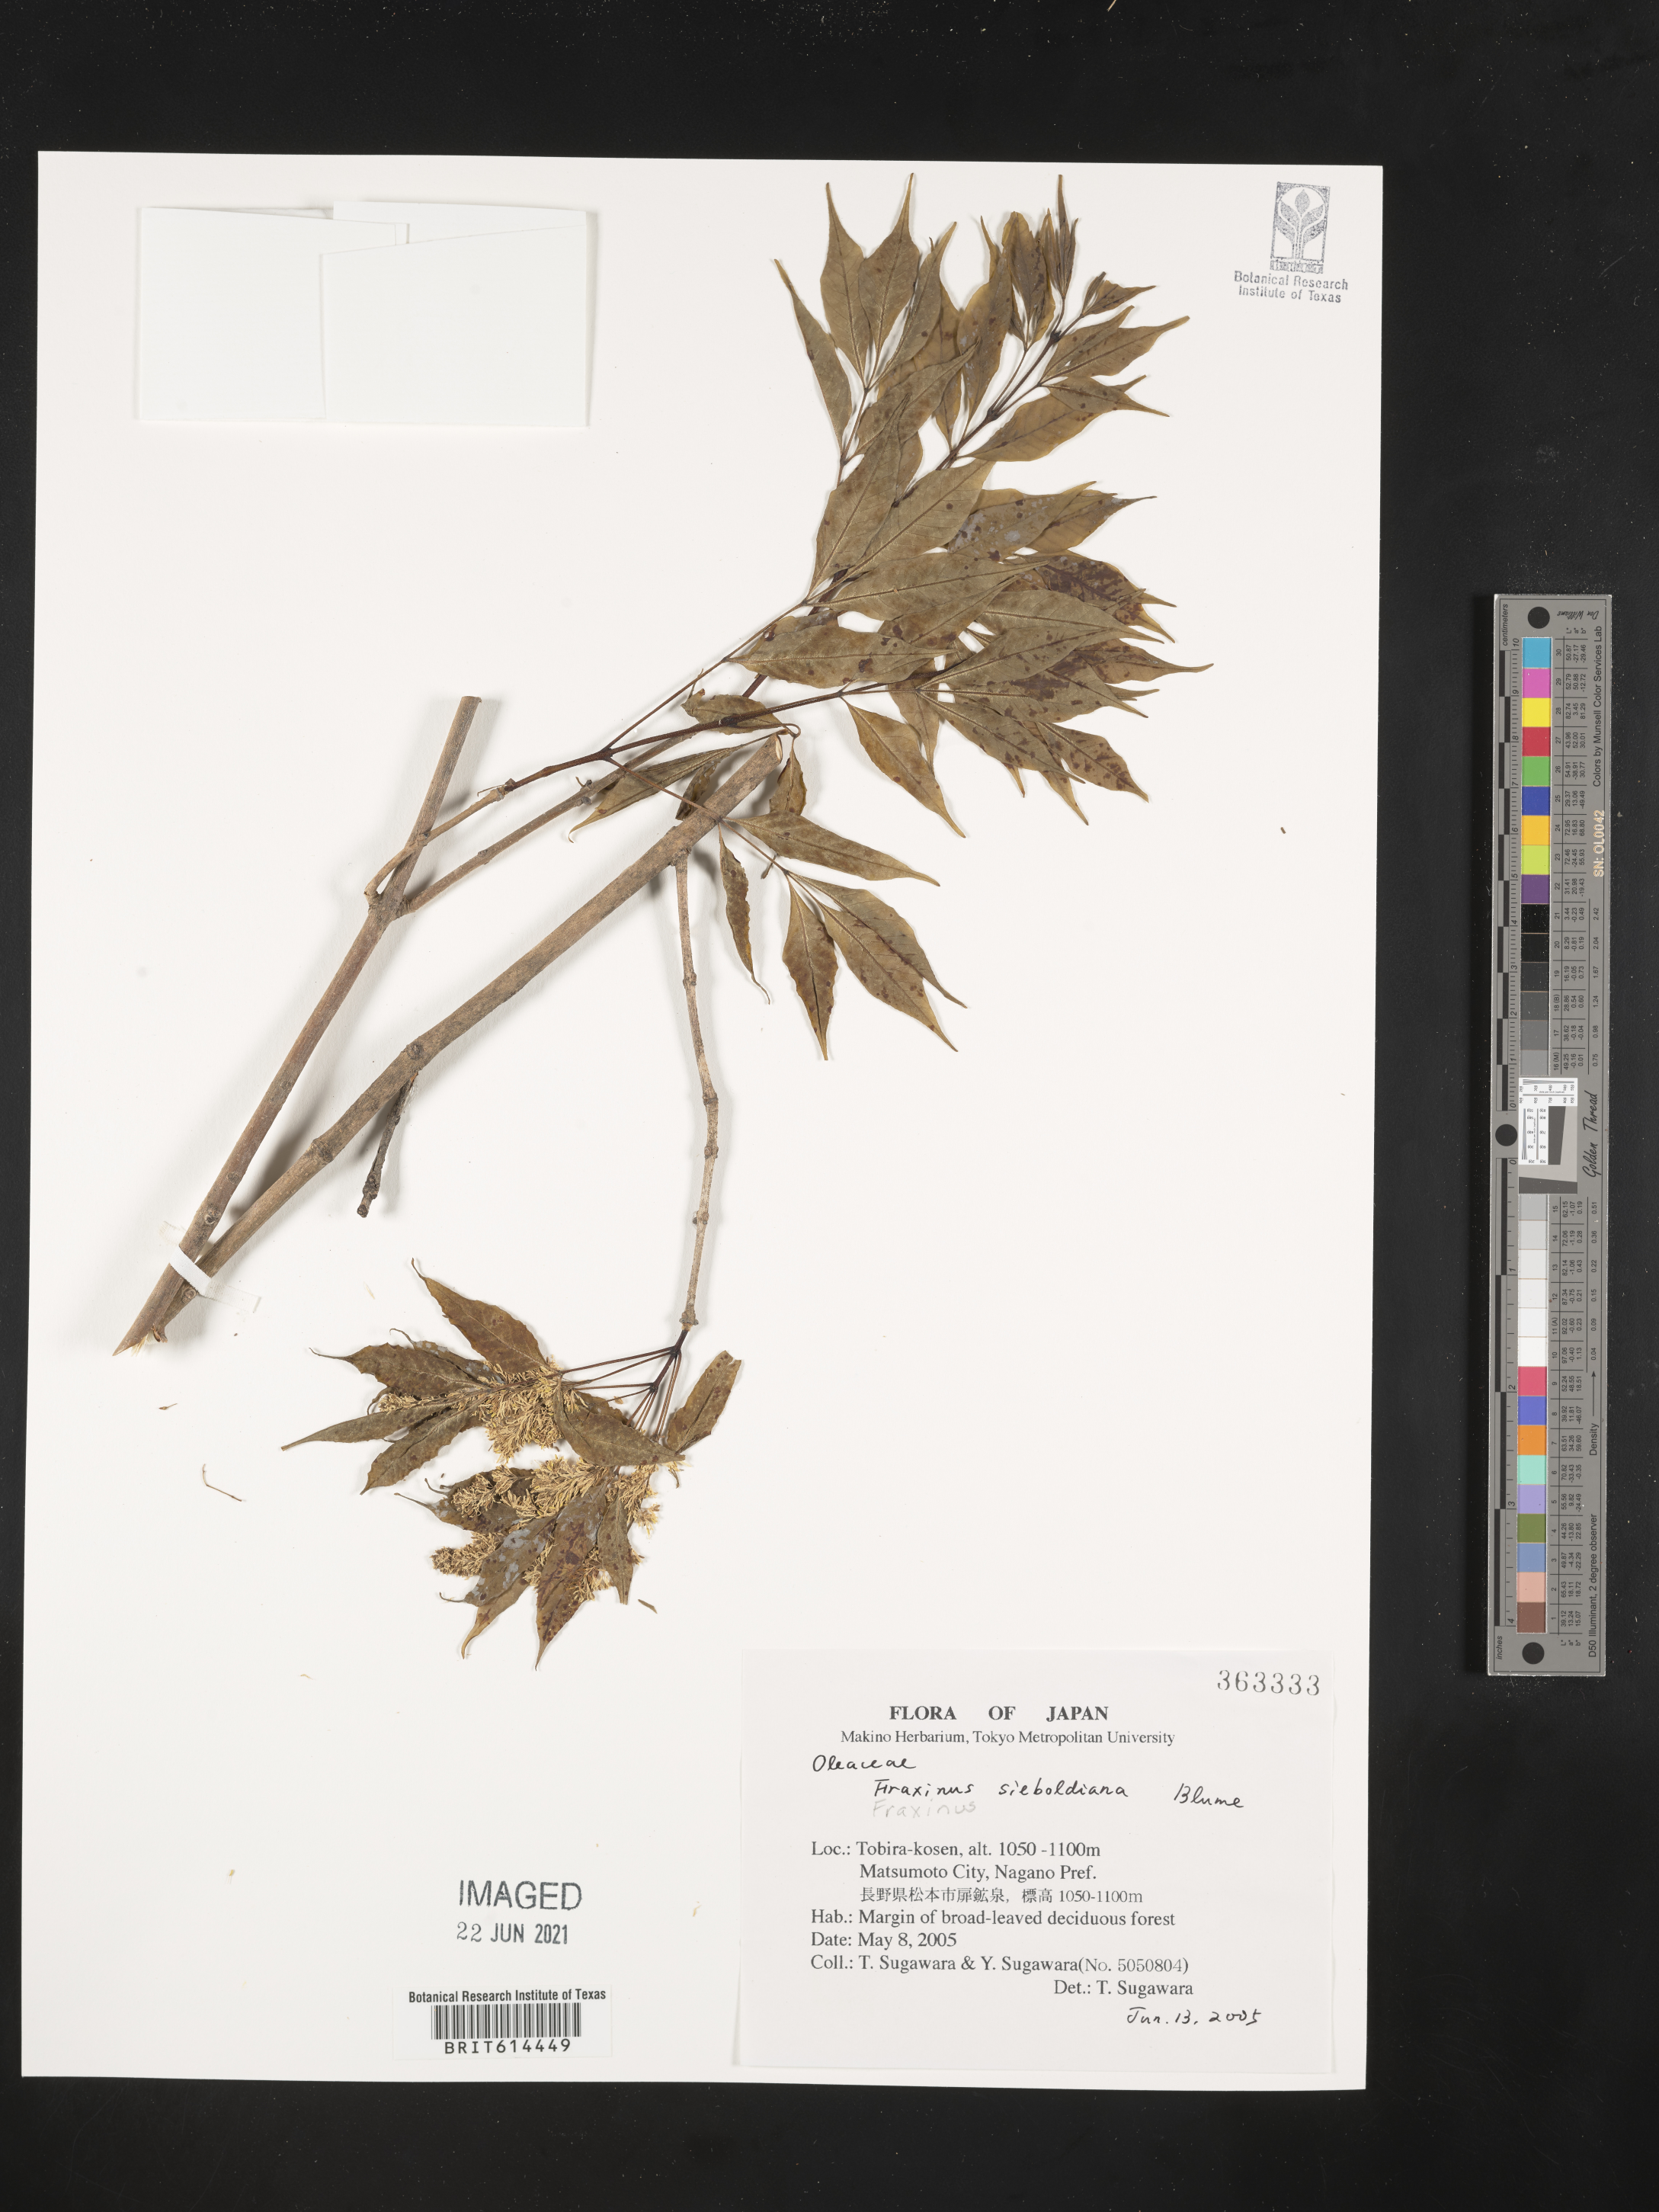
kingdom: Plantae
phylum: Tracheophyta
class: Magnoliopsida
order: Lamiales
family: Oleaceae
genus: Fraxinus
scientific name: Fraxinus sieboldiana
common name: Chinese flowering ash
